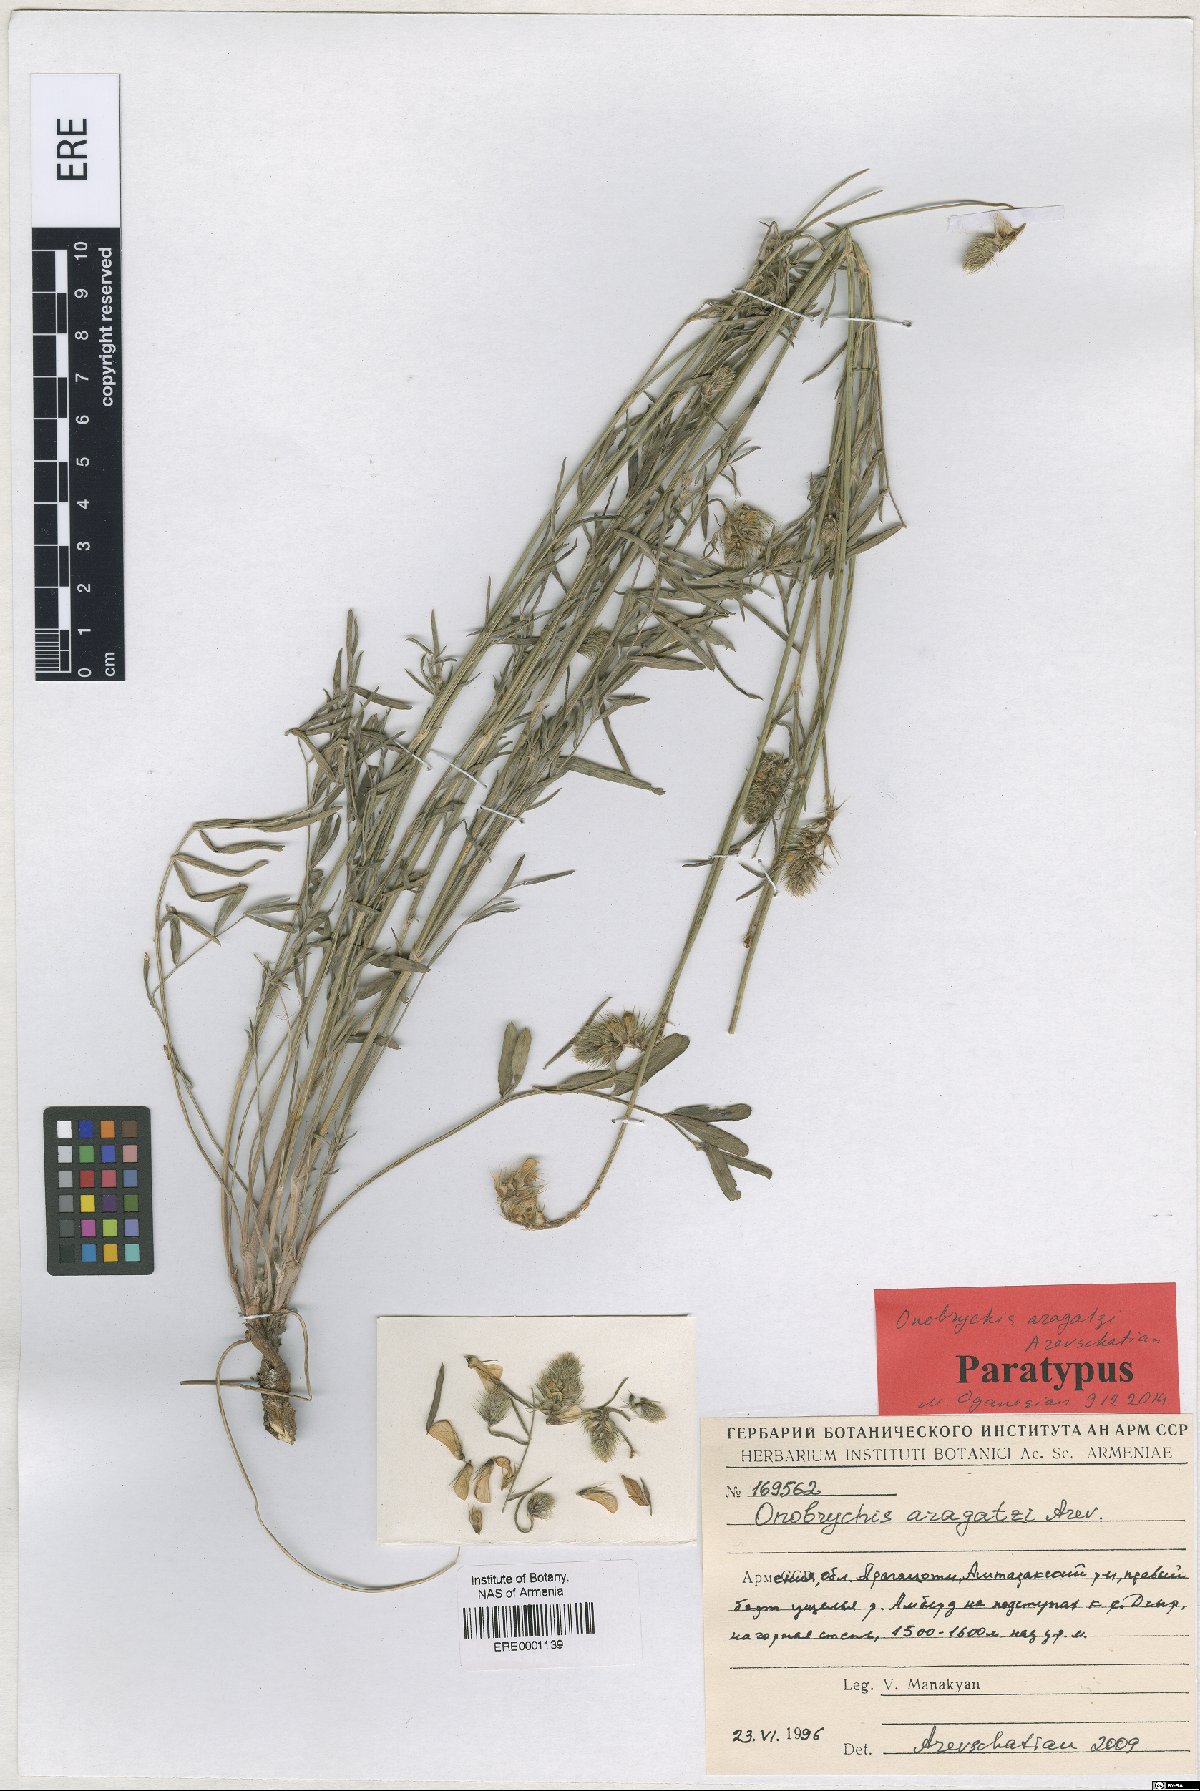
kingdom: Plantae
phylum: Tracheophyta
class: Magnoliopsida
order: Fabales
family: Fabaceae
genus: Onobrychis
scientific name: Onobrychis aragatzi
